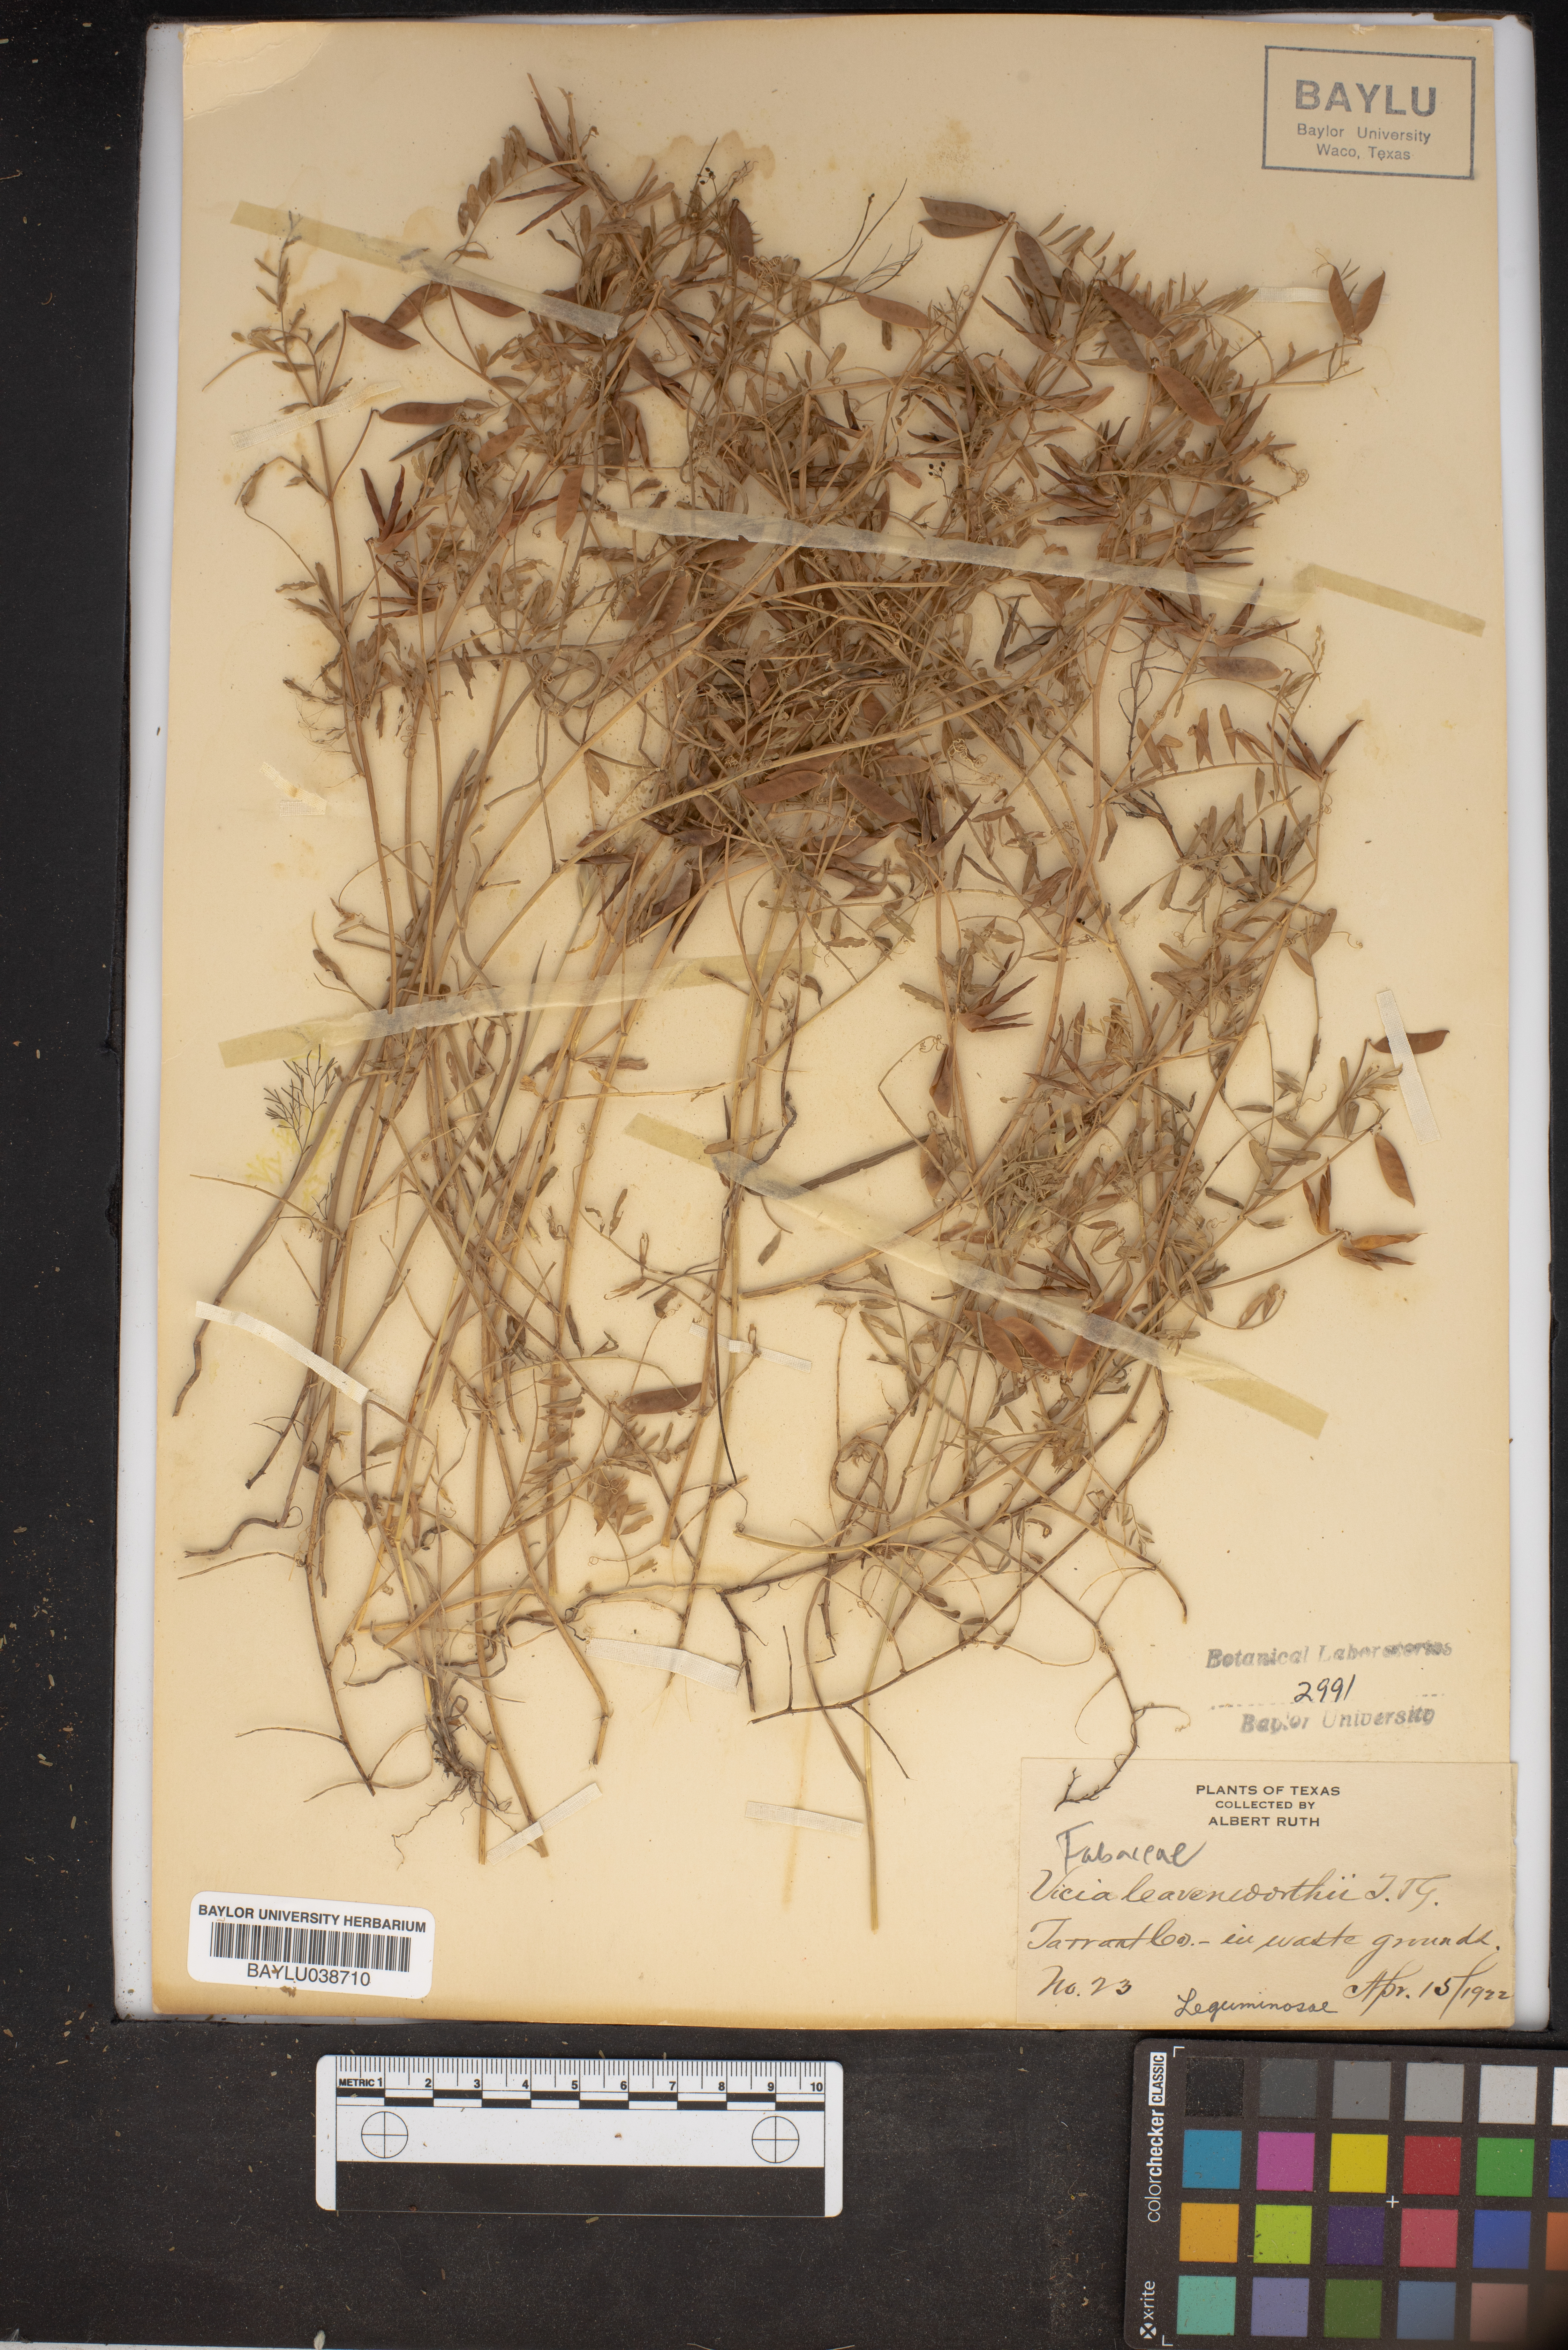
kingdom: Plantae
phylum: Tracheophyta
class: Magnoliopsida
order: Fabales
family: Fabaceae
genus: Vicia
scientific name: Vicia ludoviciana
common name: Louisiana vetch
